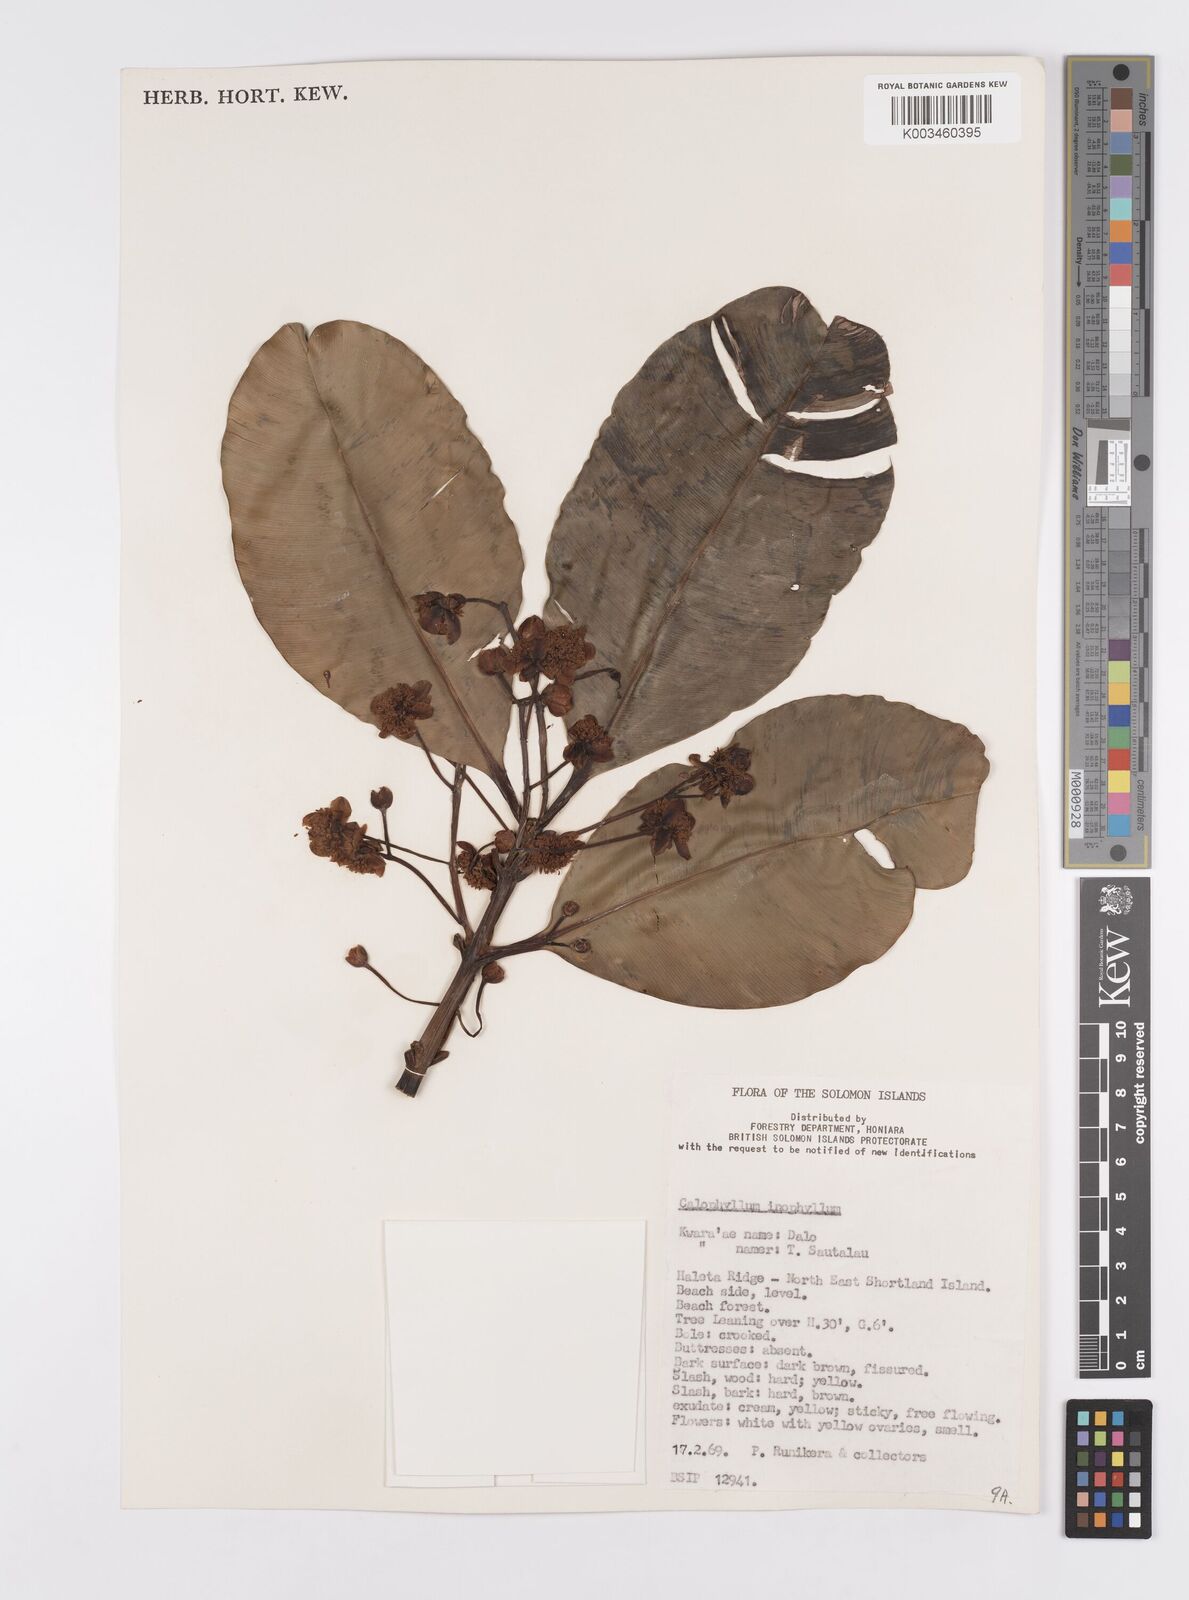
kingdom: Plantae
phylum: Tracheophyta
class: Magnoliopsida
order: Malpighiales
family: Calophyllaceae
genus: Calophyllum
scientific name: Calophyllum inophyllum
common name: Alexandrian laurel
